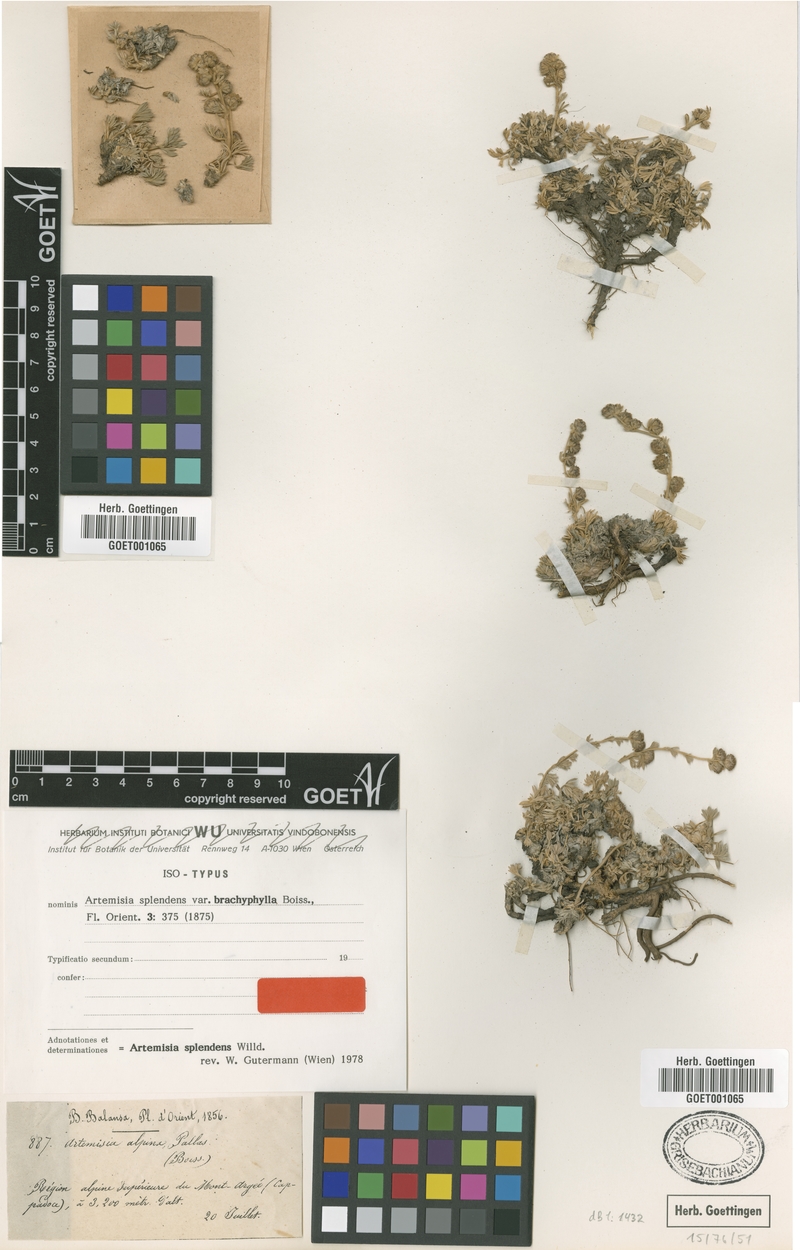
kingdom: Plantae
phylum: Tracheophyta
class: Magnoliopsida
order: Asterales
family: Asteraceae
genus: Artemisia
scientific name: Artemisia splendens
